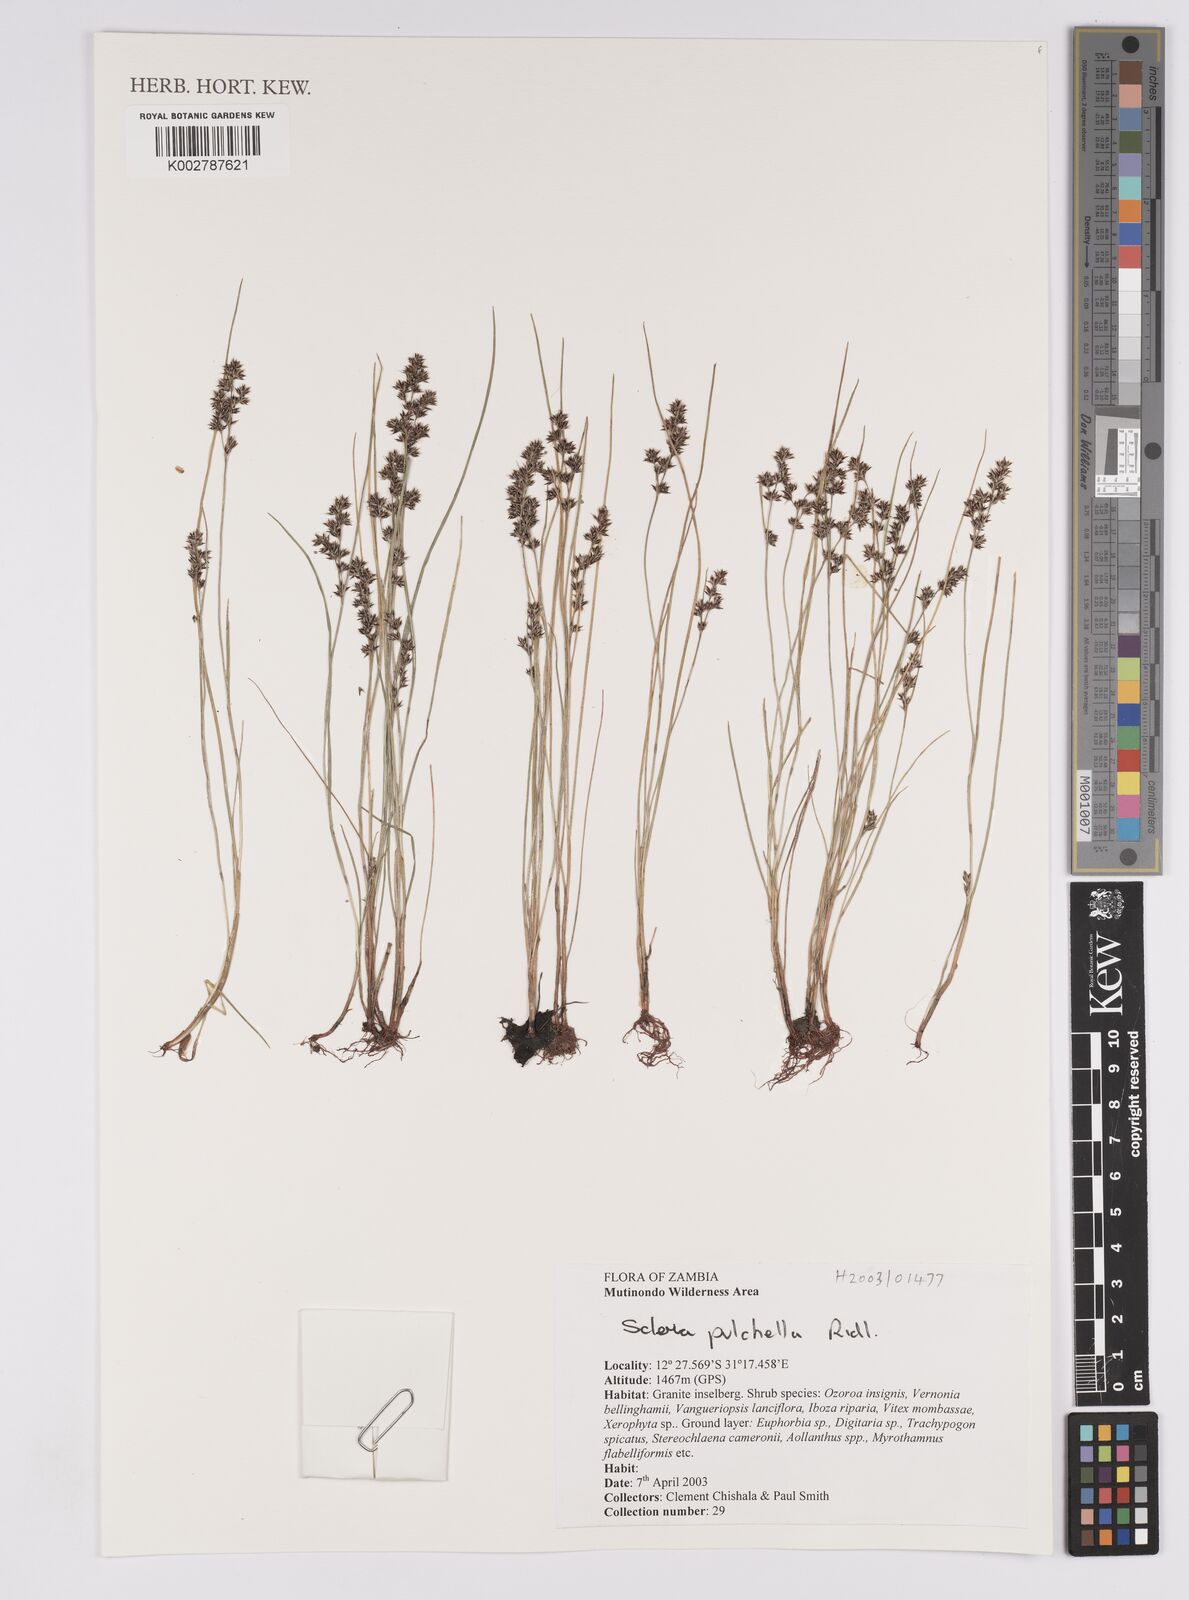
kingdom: Plantae
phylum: Tracheophyta
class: Liliopsida
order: Poales
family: Cyperaceae
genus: Scleria
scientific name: Scleria pulchella
